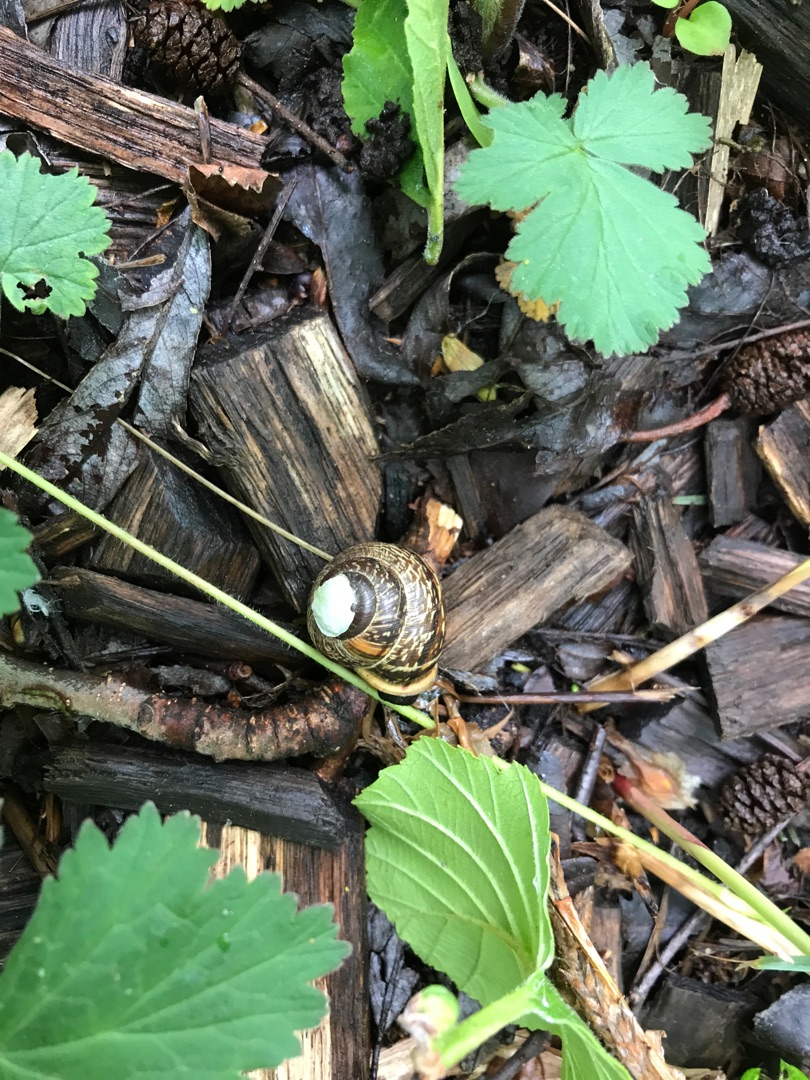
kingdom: Animalia
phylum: Mollusca
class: Gastropoda
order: Stylommatophora
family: Helicidae
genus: Arianta
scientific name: Arianta arbustorum
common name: Kratsnegl
